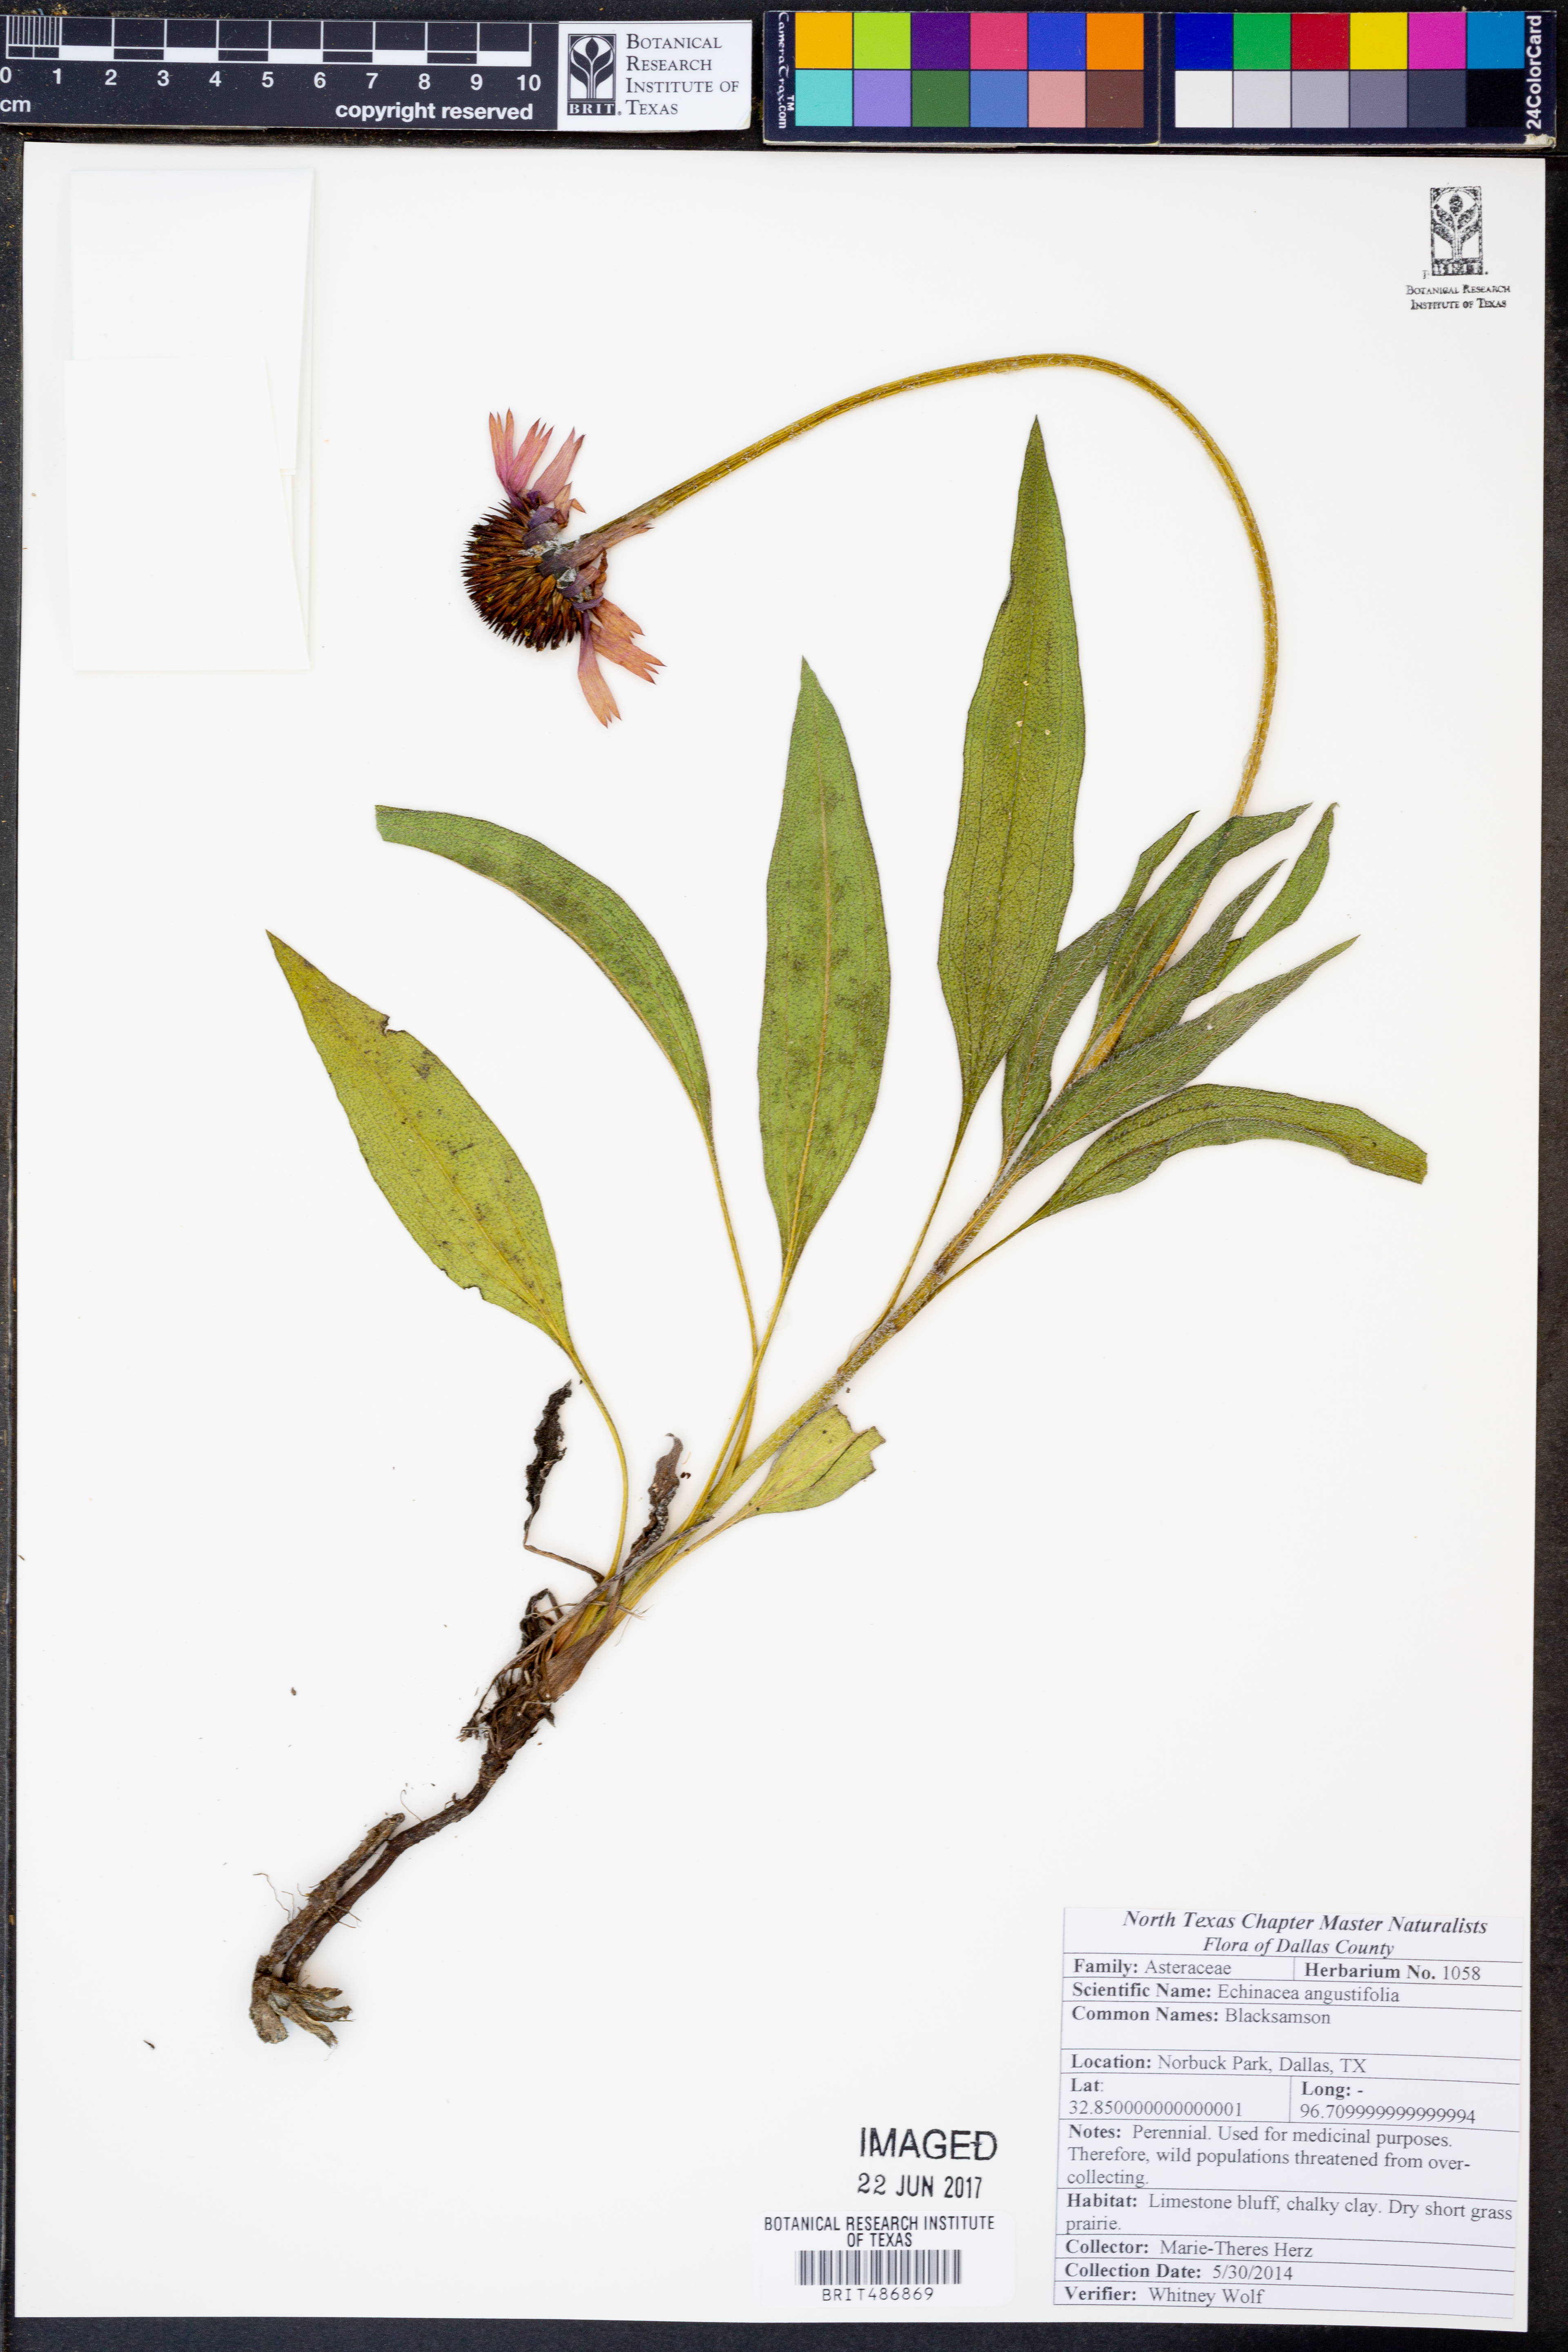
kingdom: Plantae
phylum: Tracheophyta
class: Magnoliopsida
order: Asterales
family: Asteraceae
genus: Echinacea
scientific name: Echinacea angustifolia
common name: Black-sampson echinacea
